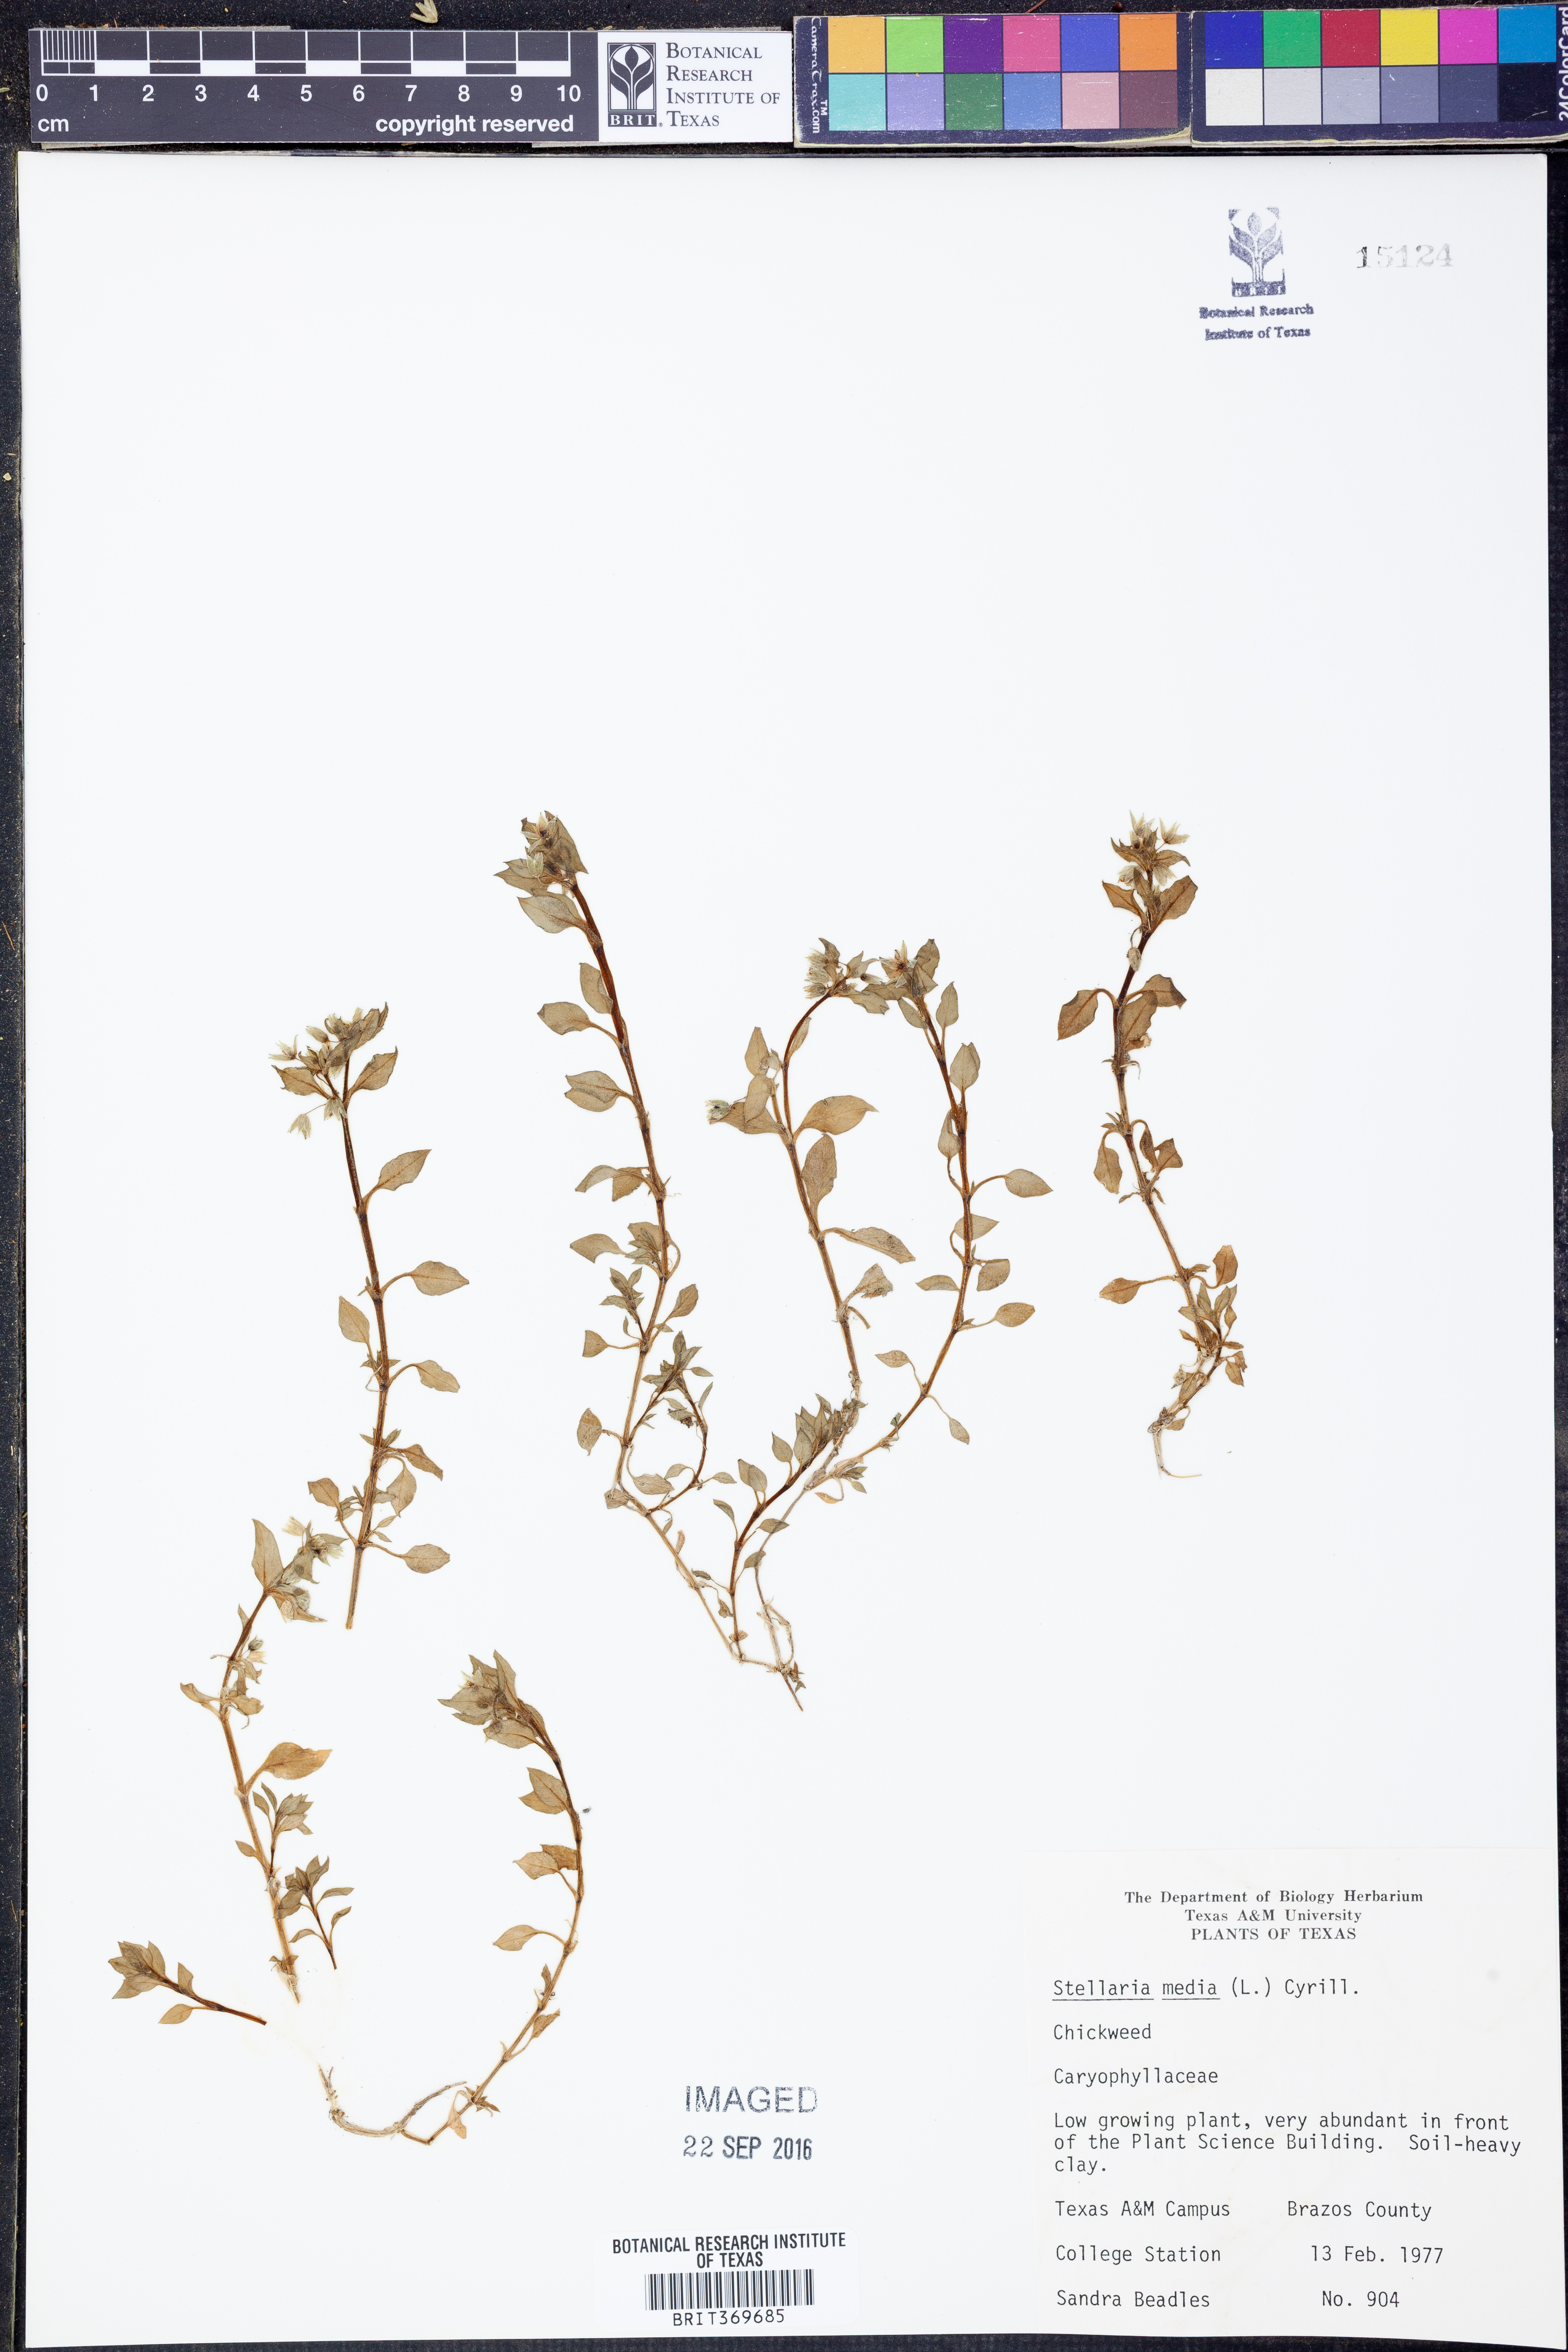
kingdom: Plantae
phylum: Tracheophyta
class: Magnoliopsida
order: Caryophyllales
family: Caryophyllaceae
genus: Stellaria
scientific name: Stellaria media
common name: Common chickweed
